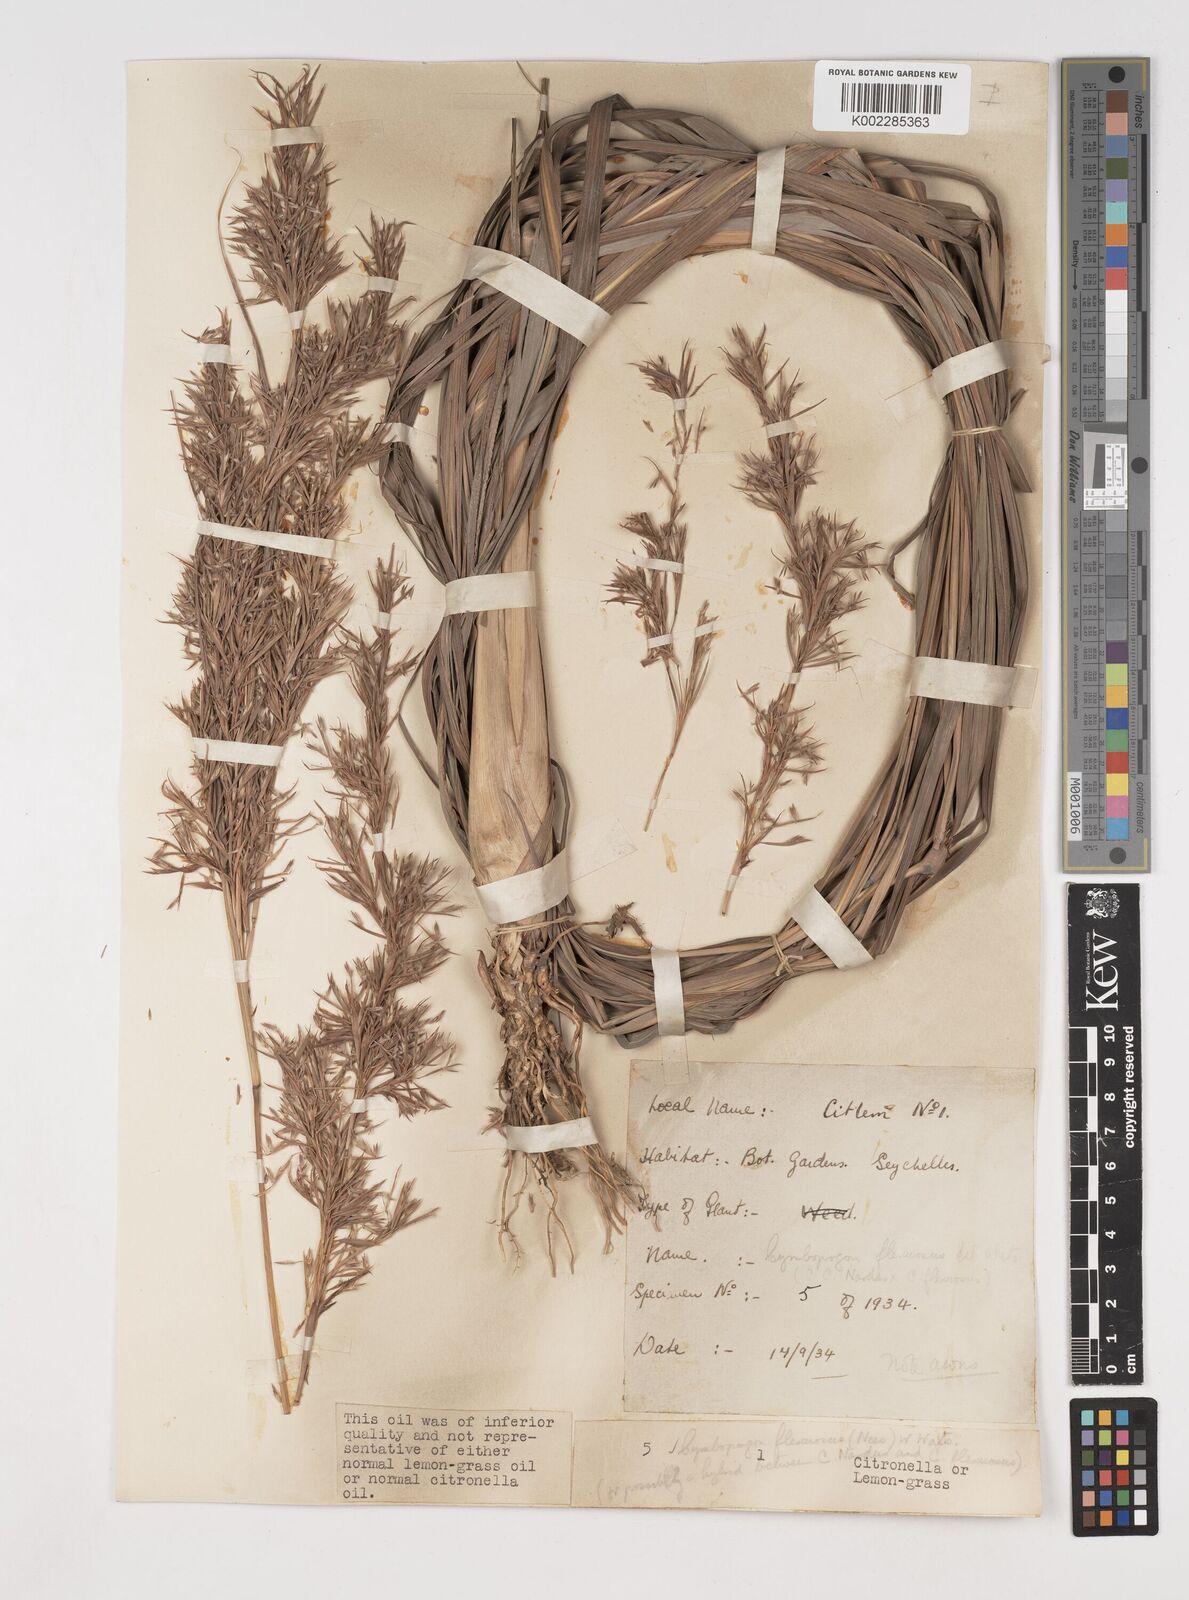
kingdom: Plantae
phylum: Tracheophyta
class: Liliopsida
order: Poales
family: Poaceae
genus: Cymbopogon
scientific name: Cymbopogon flexuosus
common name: East indian lemongrass
